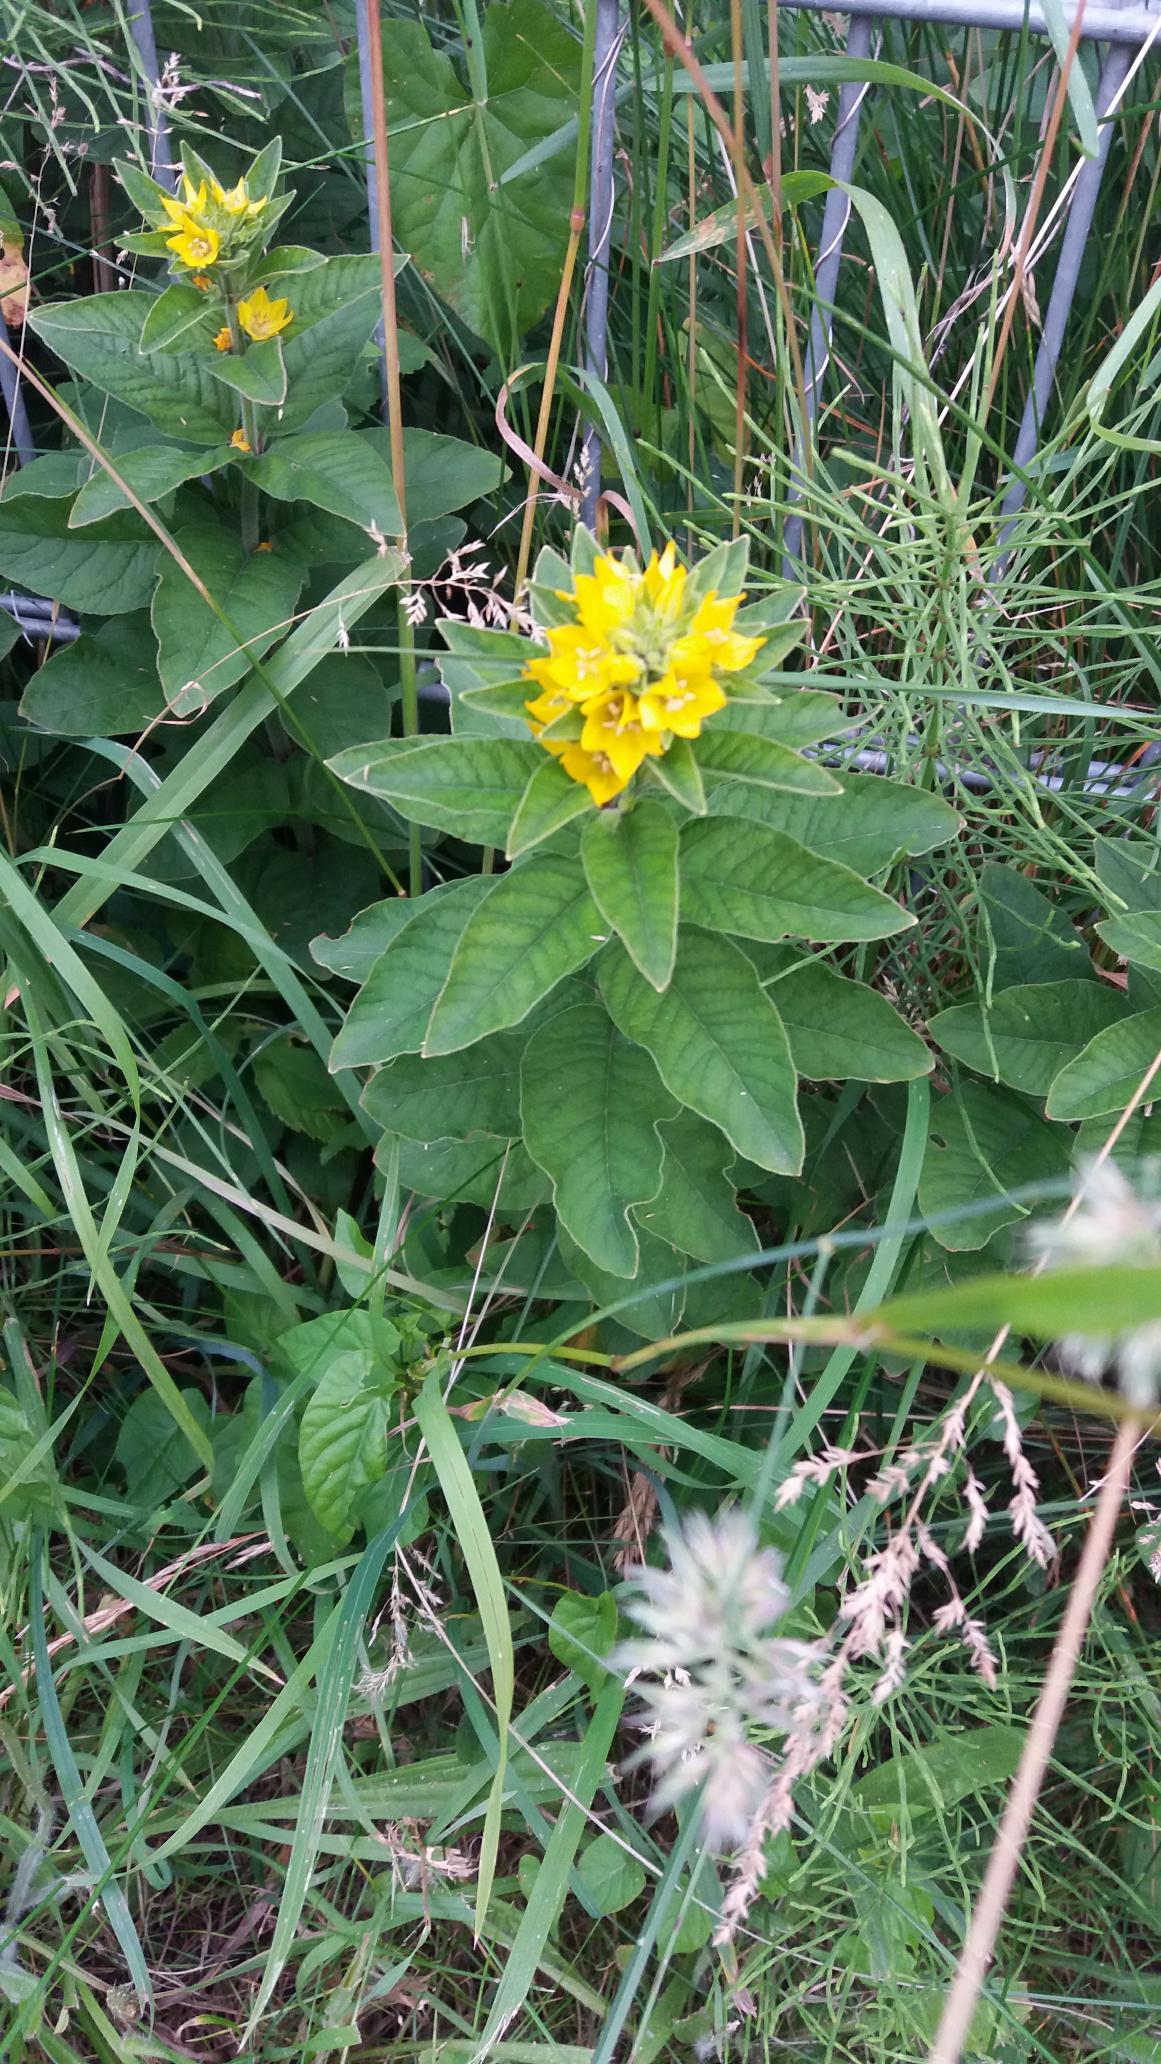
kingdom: Plantae
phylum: Tracheophyta
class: Magnoliopsida
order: Ericales
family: Primulaceae
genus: Lysimachia
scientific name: Lysimachia punctata
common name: Prikbladet fredløs
